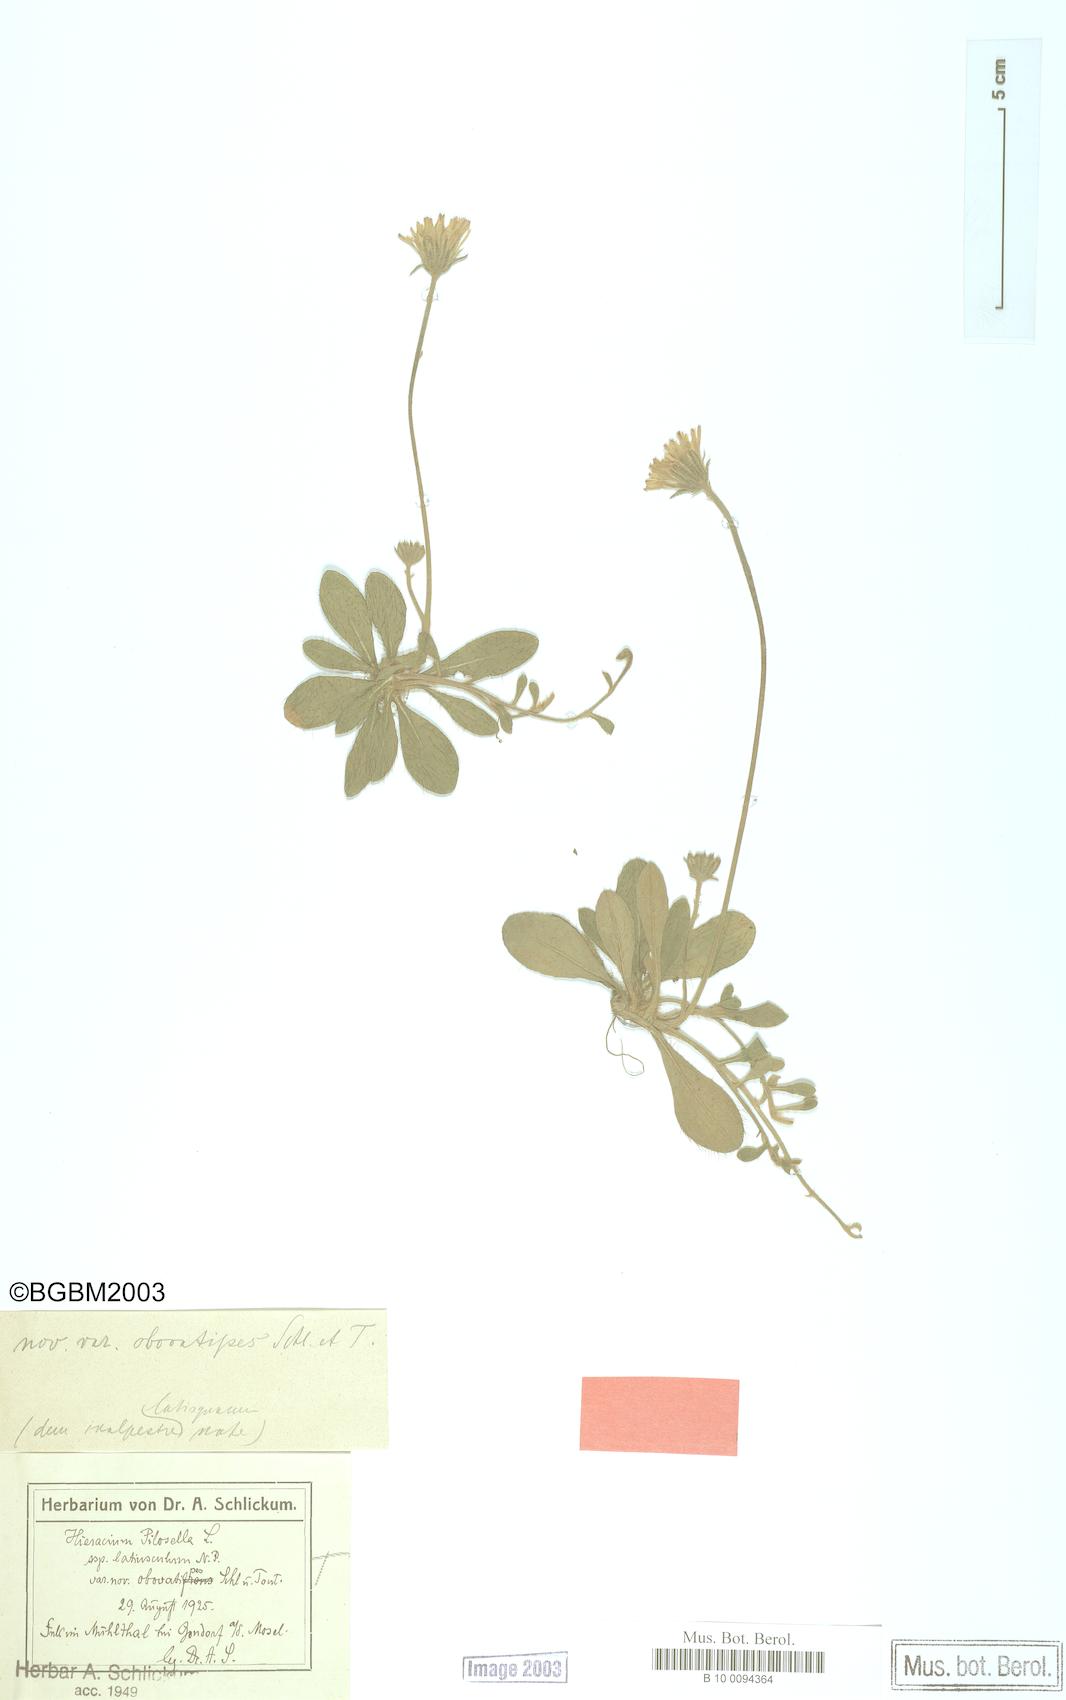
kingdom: Plantae
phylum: Tracheophyta
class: Magnoliopsida
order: Asterales
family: Asteraceae
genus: Pilosella
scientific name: Pilosella officinarum
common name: Mouse-ear hawkweed
